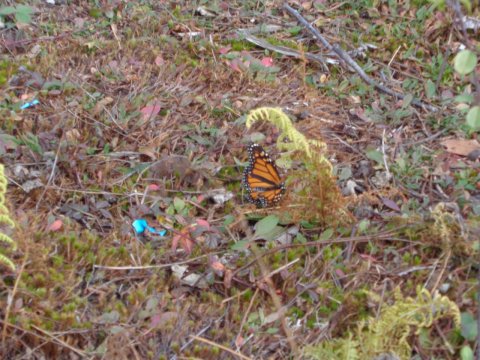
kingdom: Animalia
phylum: Arthropoda
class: Insecta
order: Lepidoptera
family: Nymphalidae
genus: Danaus
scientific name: Danaus plexippus
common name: Monarch
